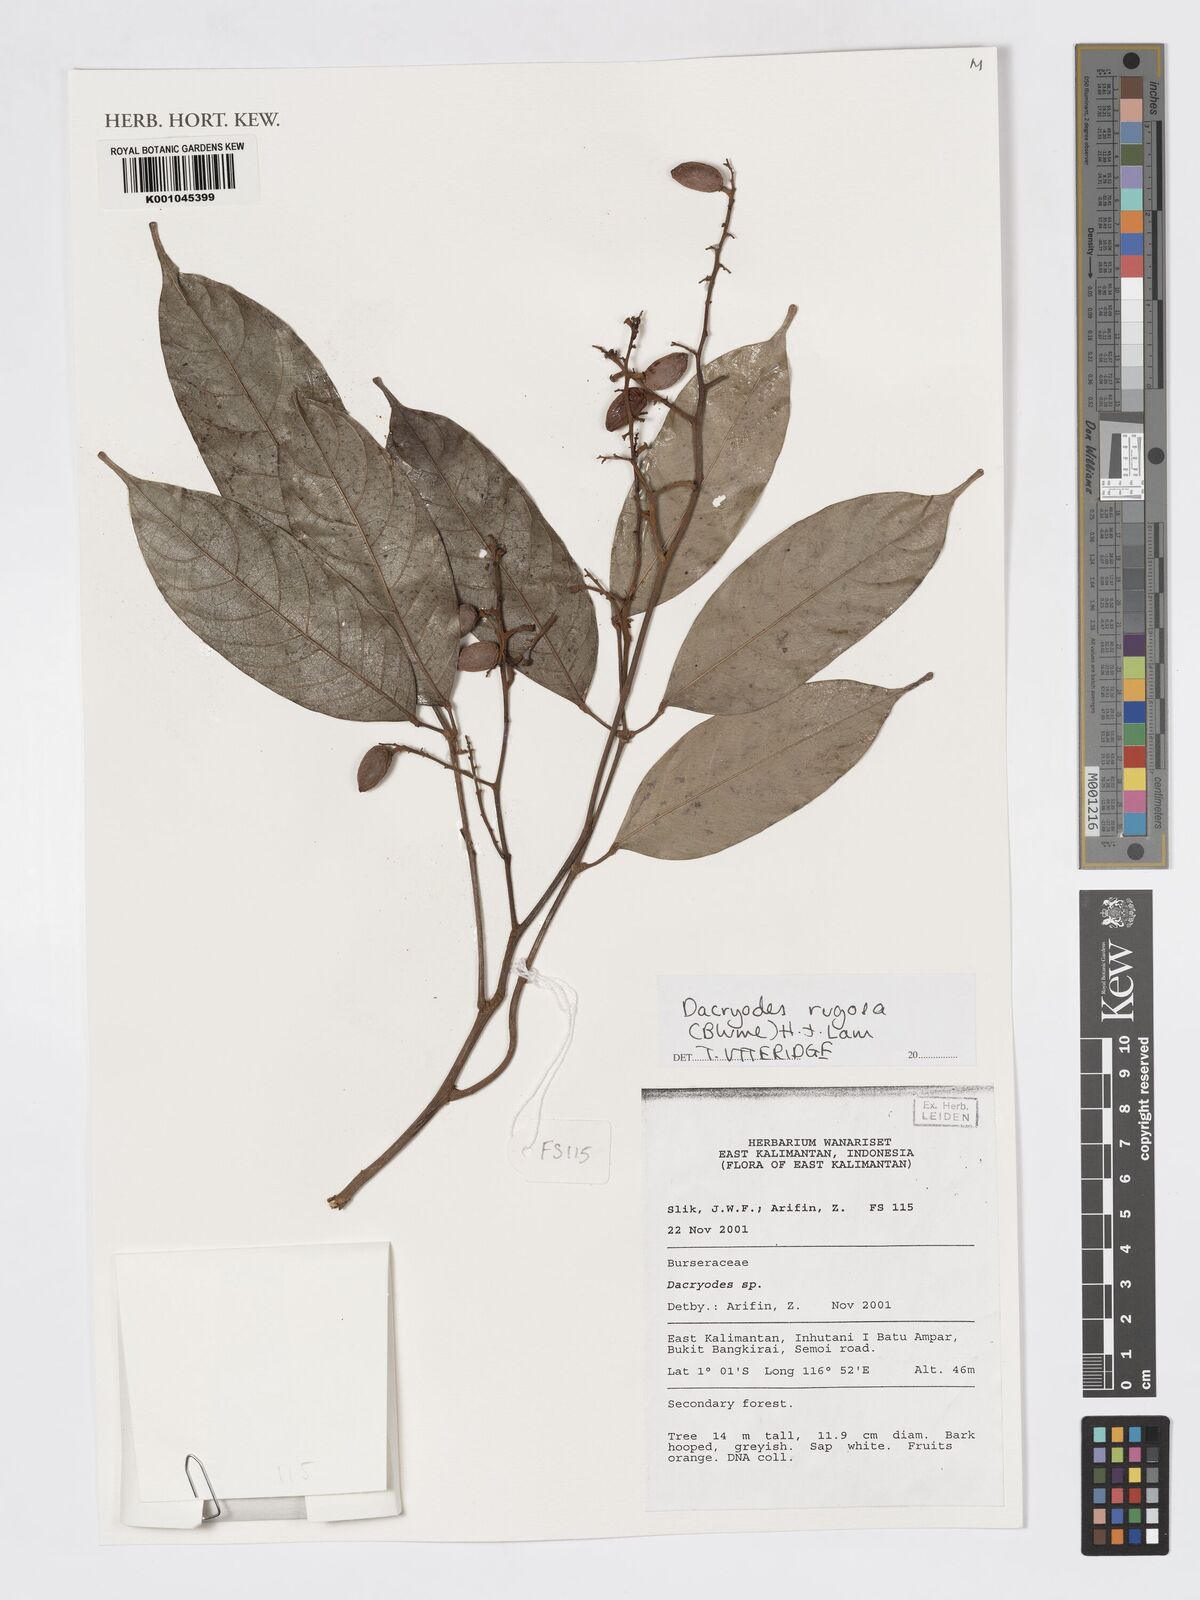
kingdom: Plantae
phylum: Tracheophyta
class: Magnoliopsida
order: Sapindales
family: Burseraceae
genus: Dacryodes
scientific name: Dacryodes rugosa
